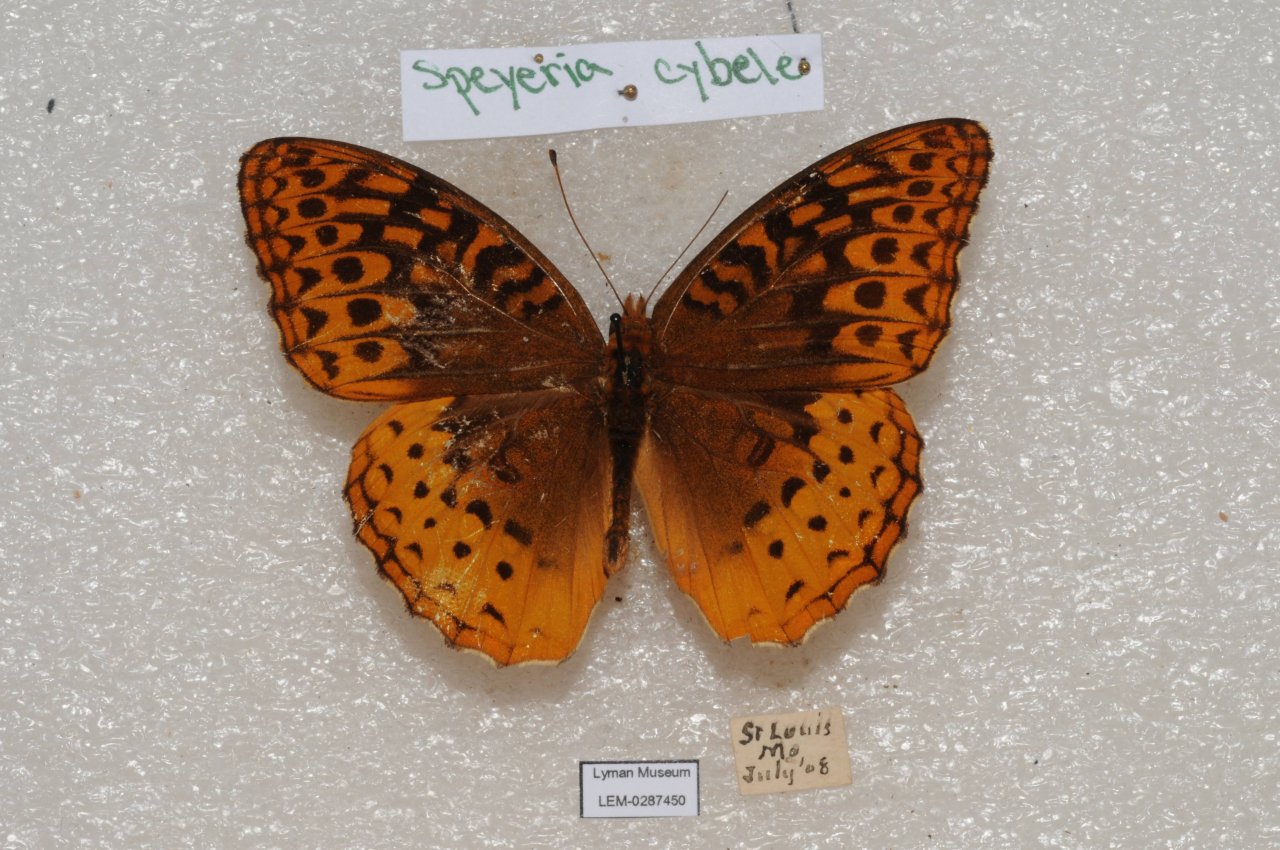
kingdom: Animalia
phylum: Arthropoda
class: Insecta
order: Lepidoptera
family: Nymphalidae
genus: Speyeria
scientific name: Speyeria cybele
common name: Great Spangled Fritillary
